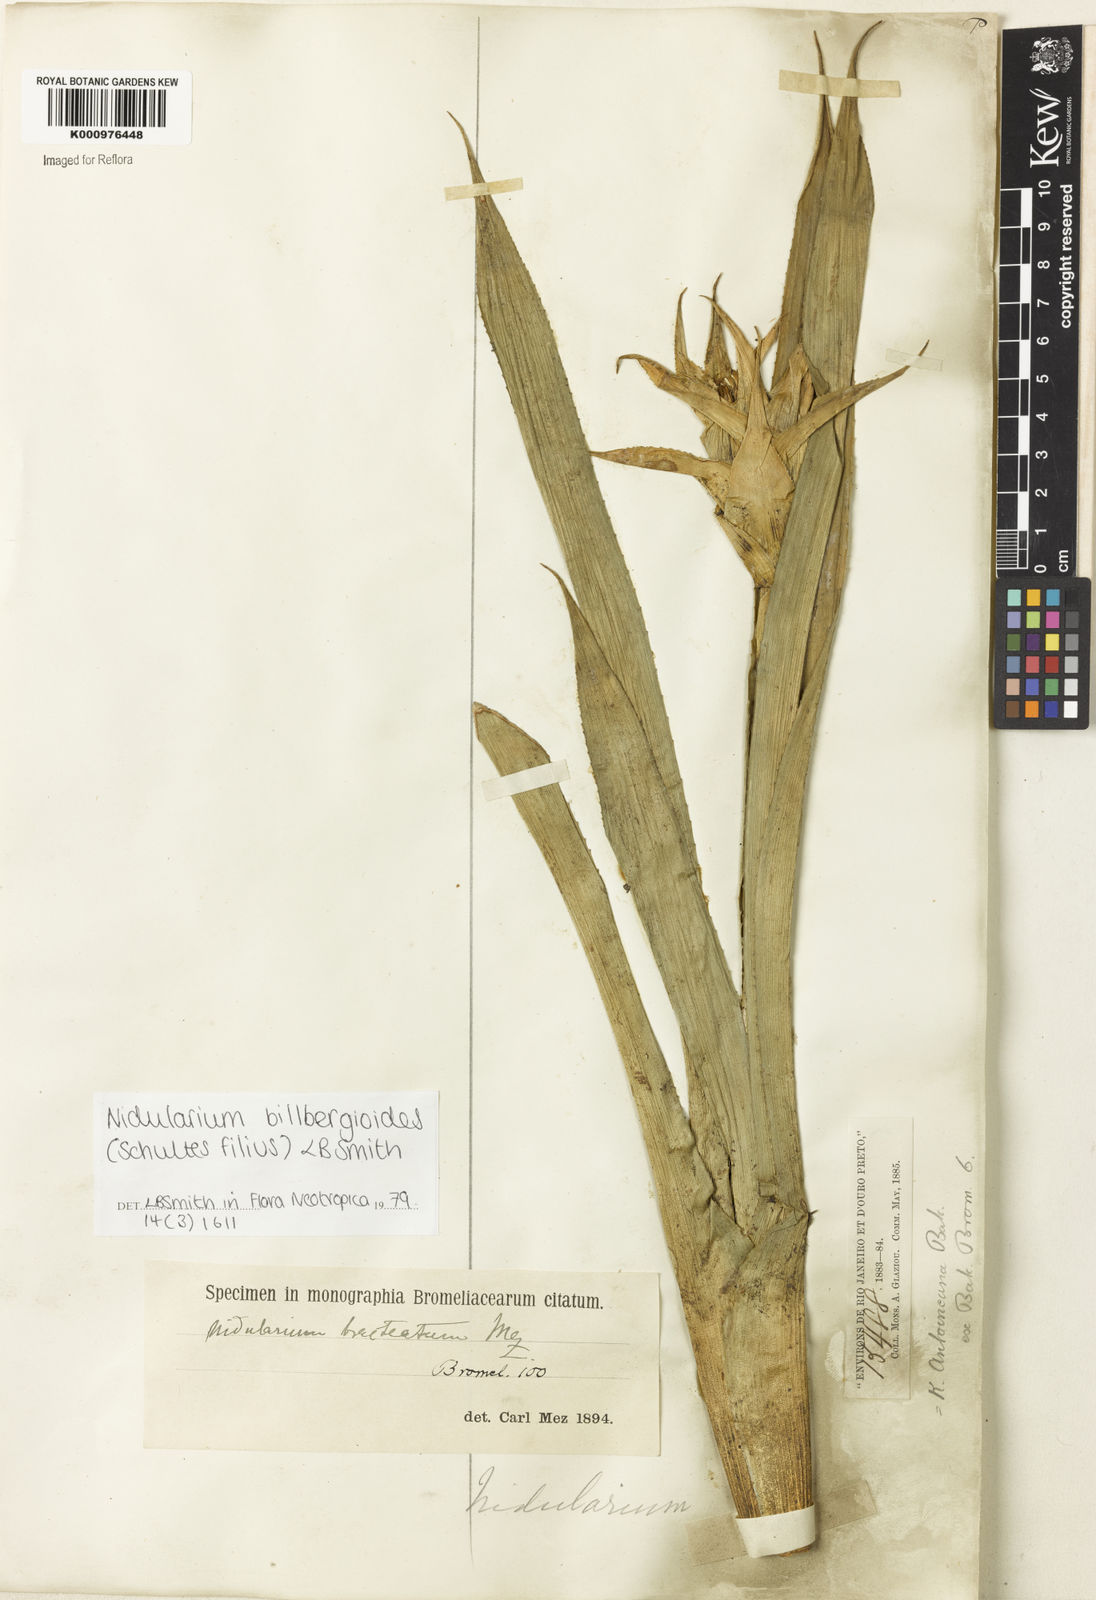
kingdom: Plantae
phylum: Tracheophyta
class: Liliopsida
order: Poales
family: Bromeliaceae
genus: Nidularium
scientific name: Nidularium
